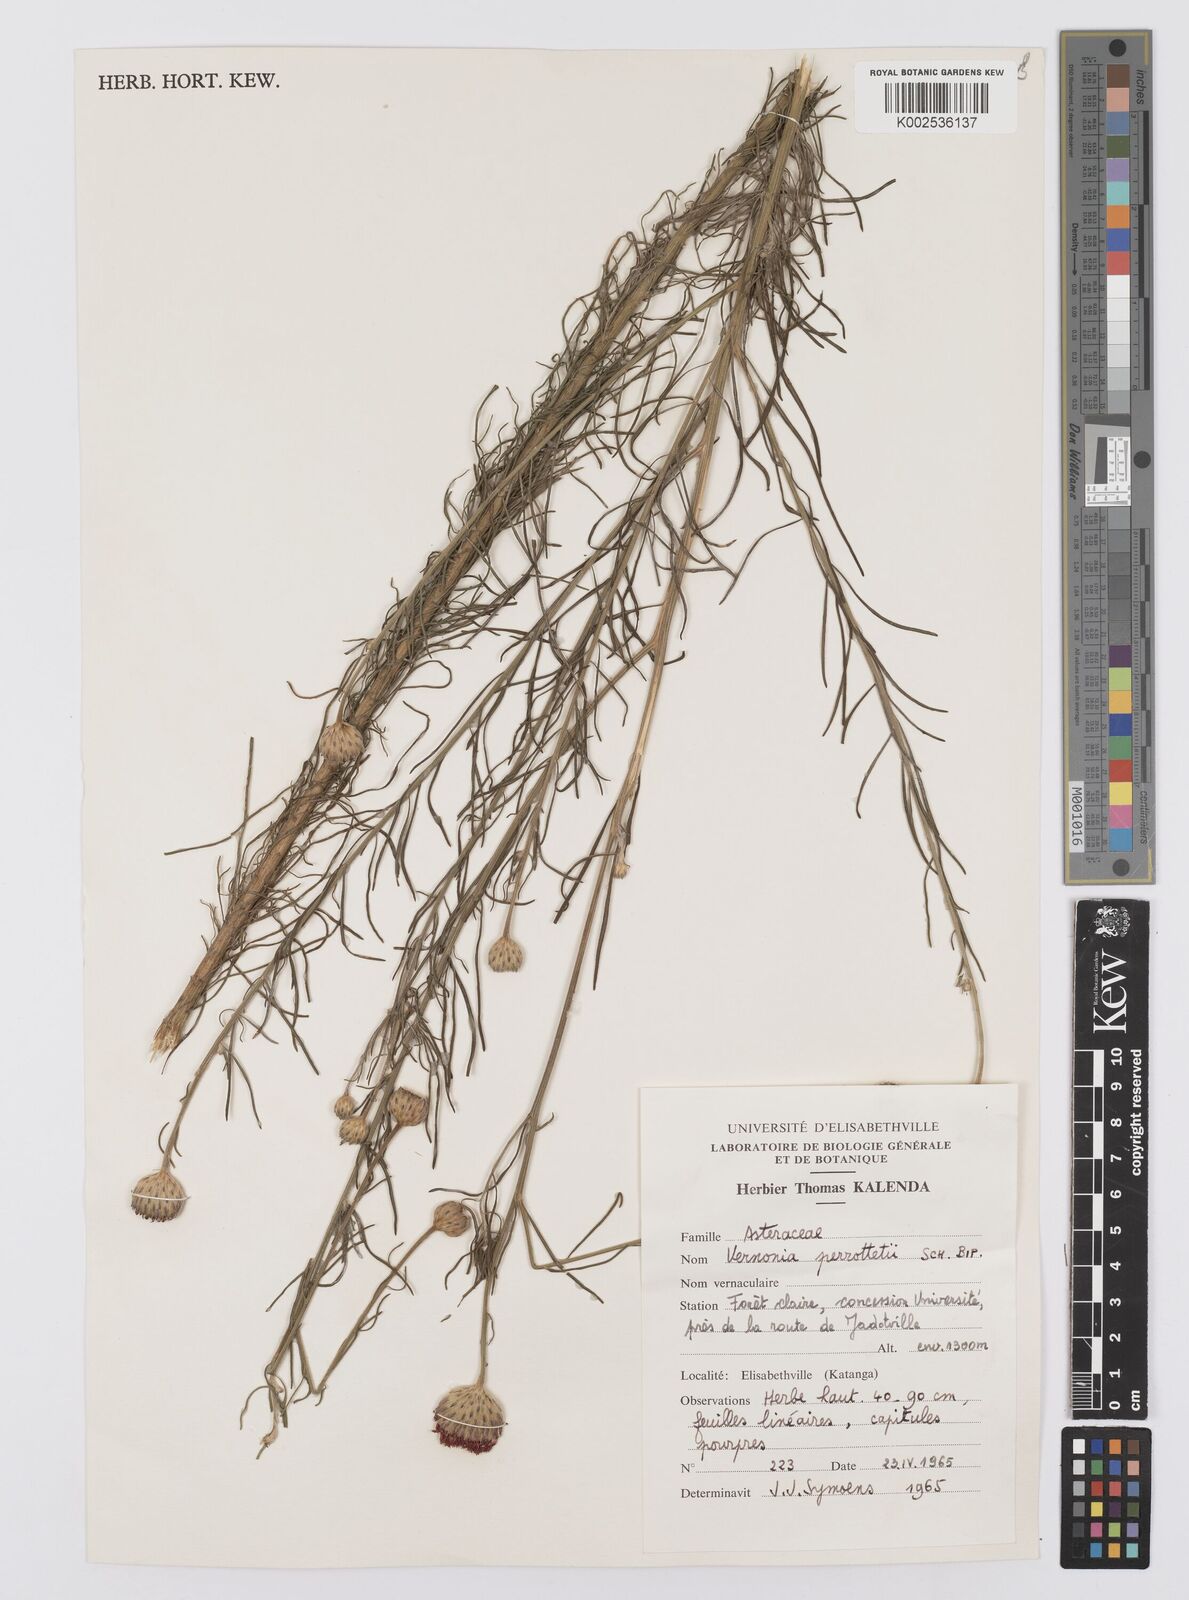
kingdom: Plantae
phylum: Tracheophyta
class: Magnoliopsida
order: Asterales
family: Asteraceae
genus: Crystallopollen
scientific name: Crystallopollen serratuloides
